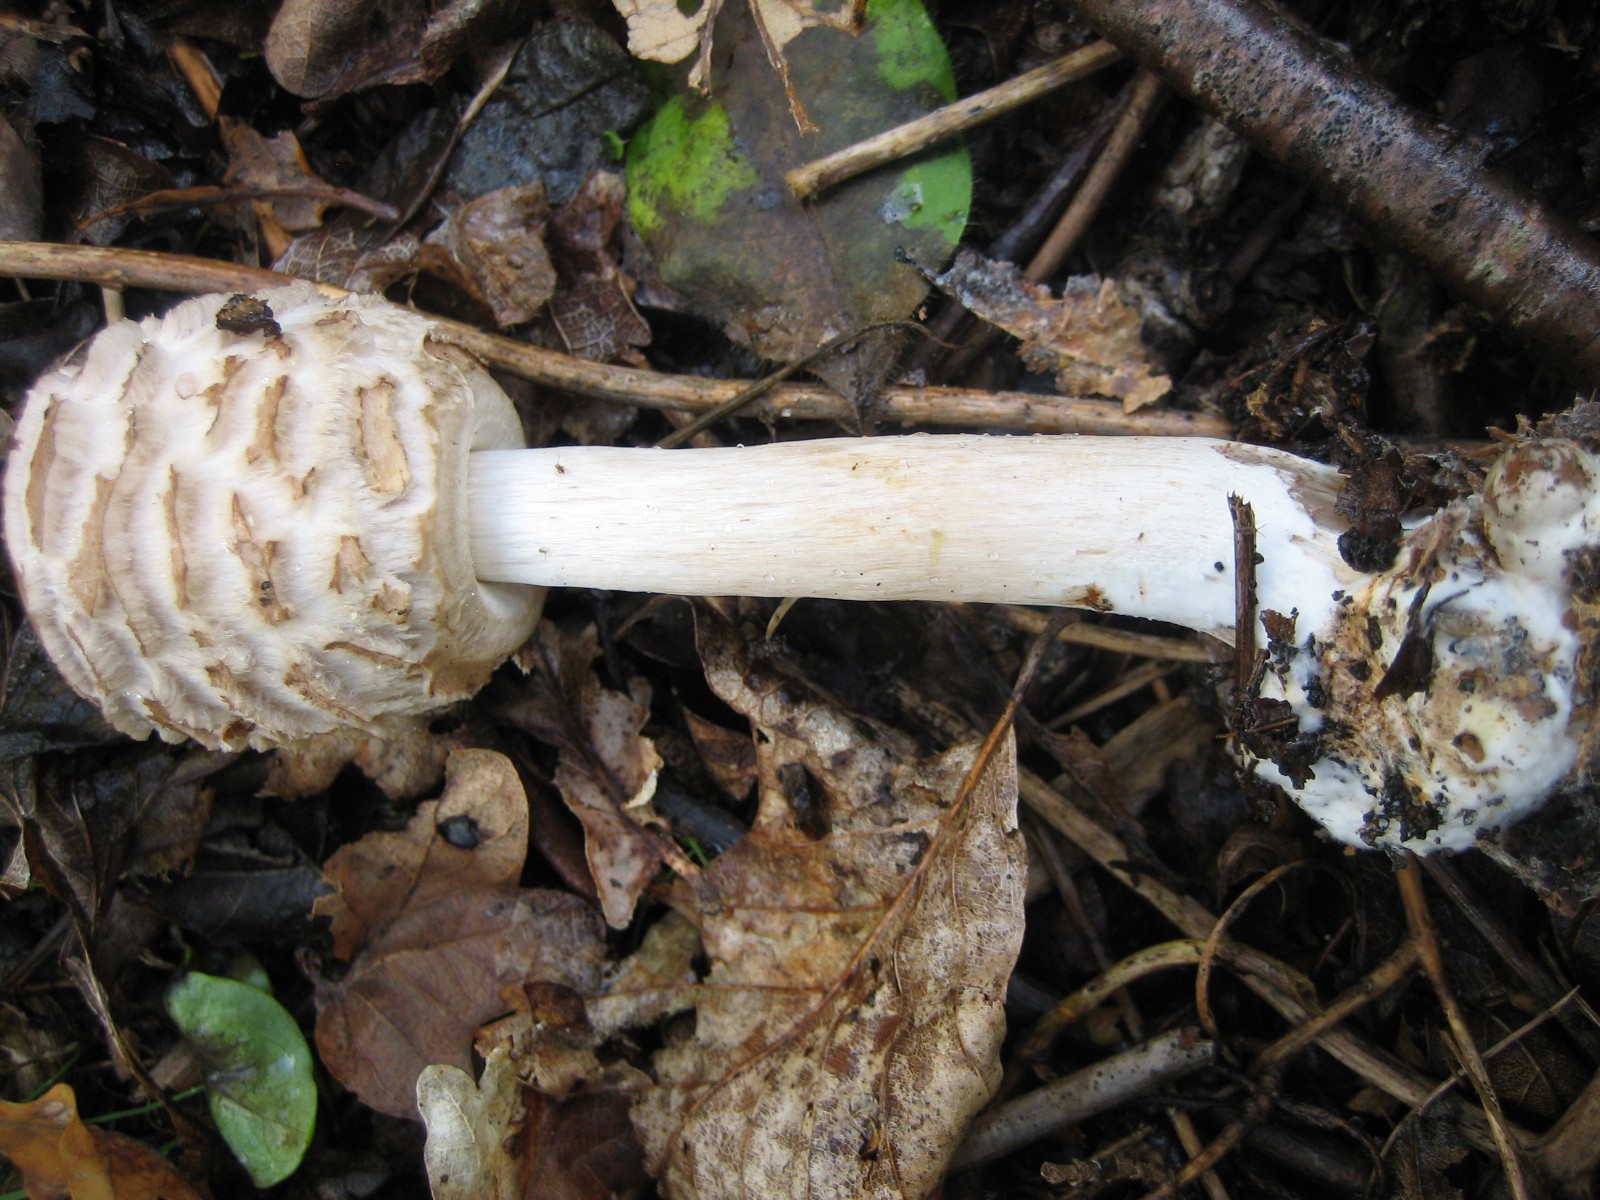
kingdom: Fungi
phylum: Basidiomycota
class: Agaricomycetes
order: Agaricales
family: Agaricaceae
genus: Chlorophyllum
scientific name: Chlorophyllum olivieri
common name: almindelig rabarberhat
